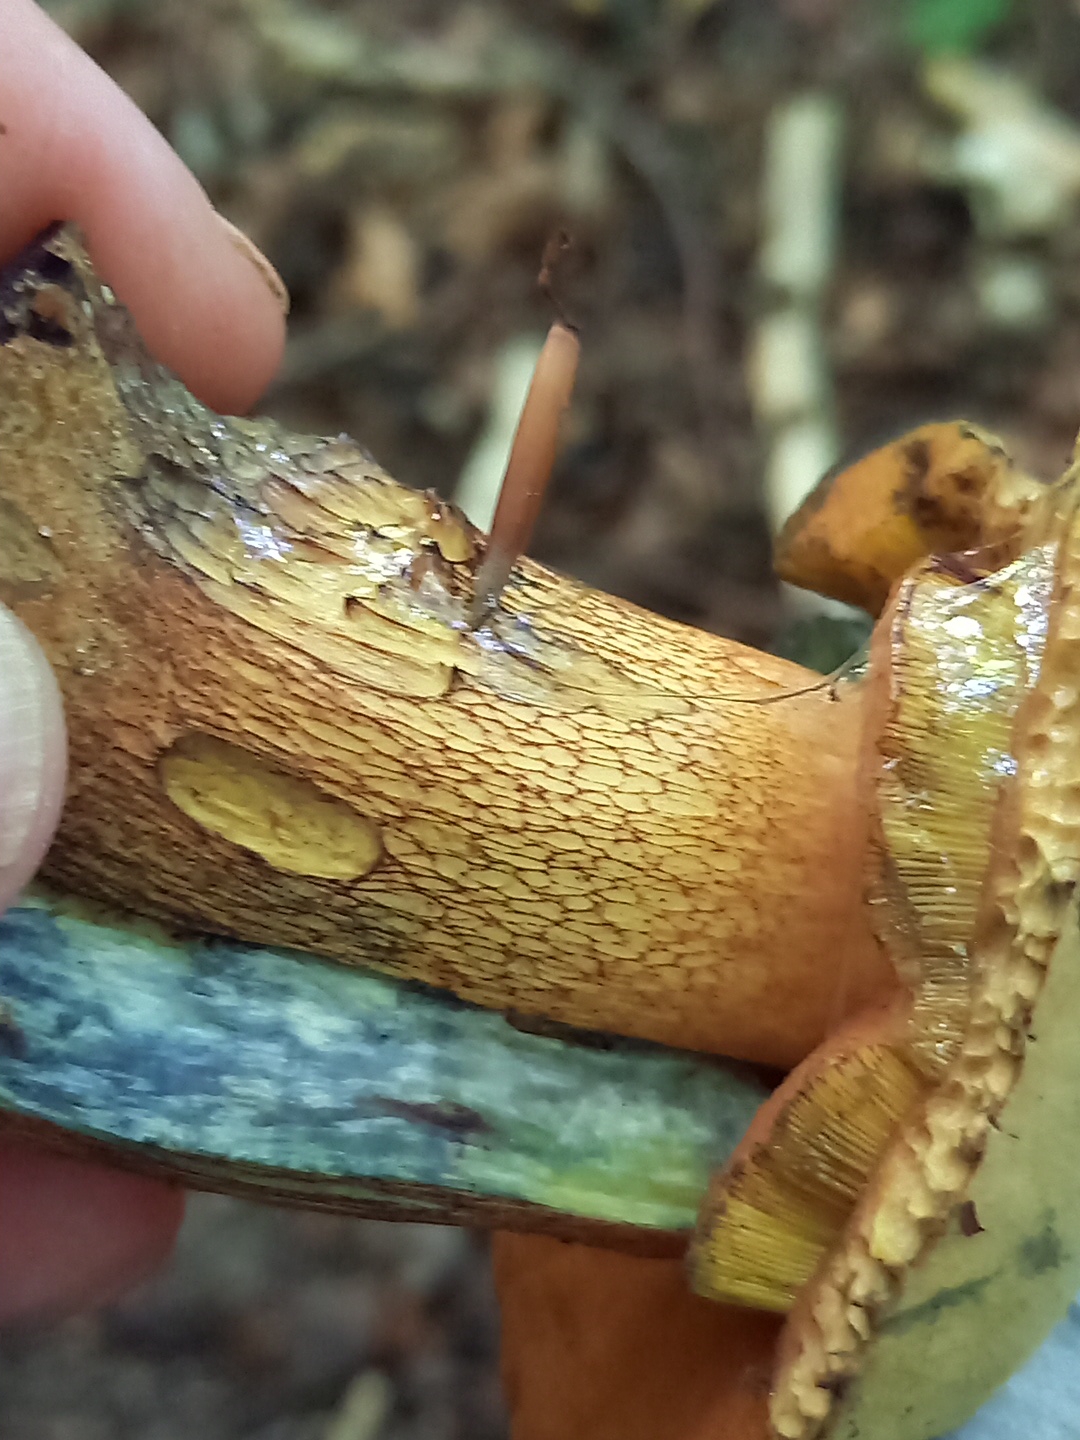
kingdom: Fungi
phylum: Basidiomycota
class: Agaricomycetes
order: Boletales
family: Boletaceae
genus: Suillellus
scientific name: Suillellus luridus
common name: netstokket indigorørhat
